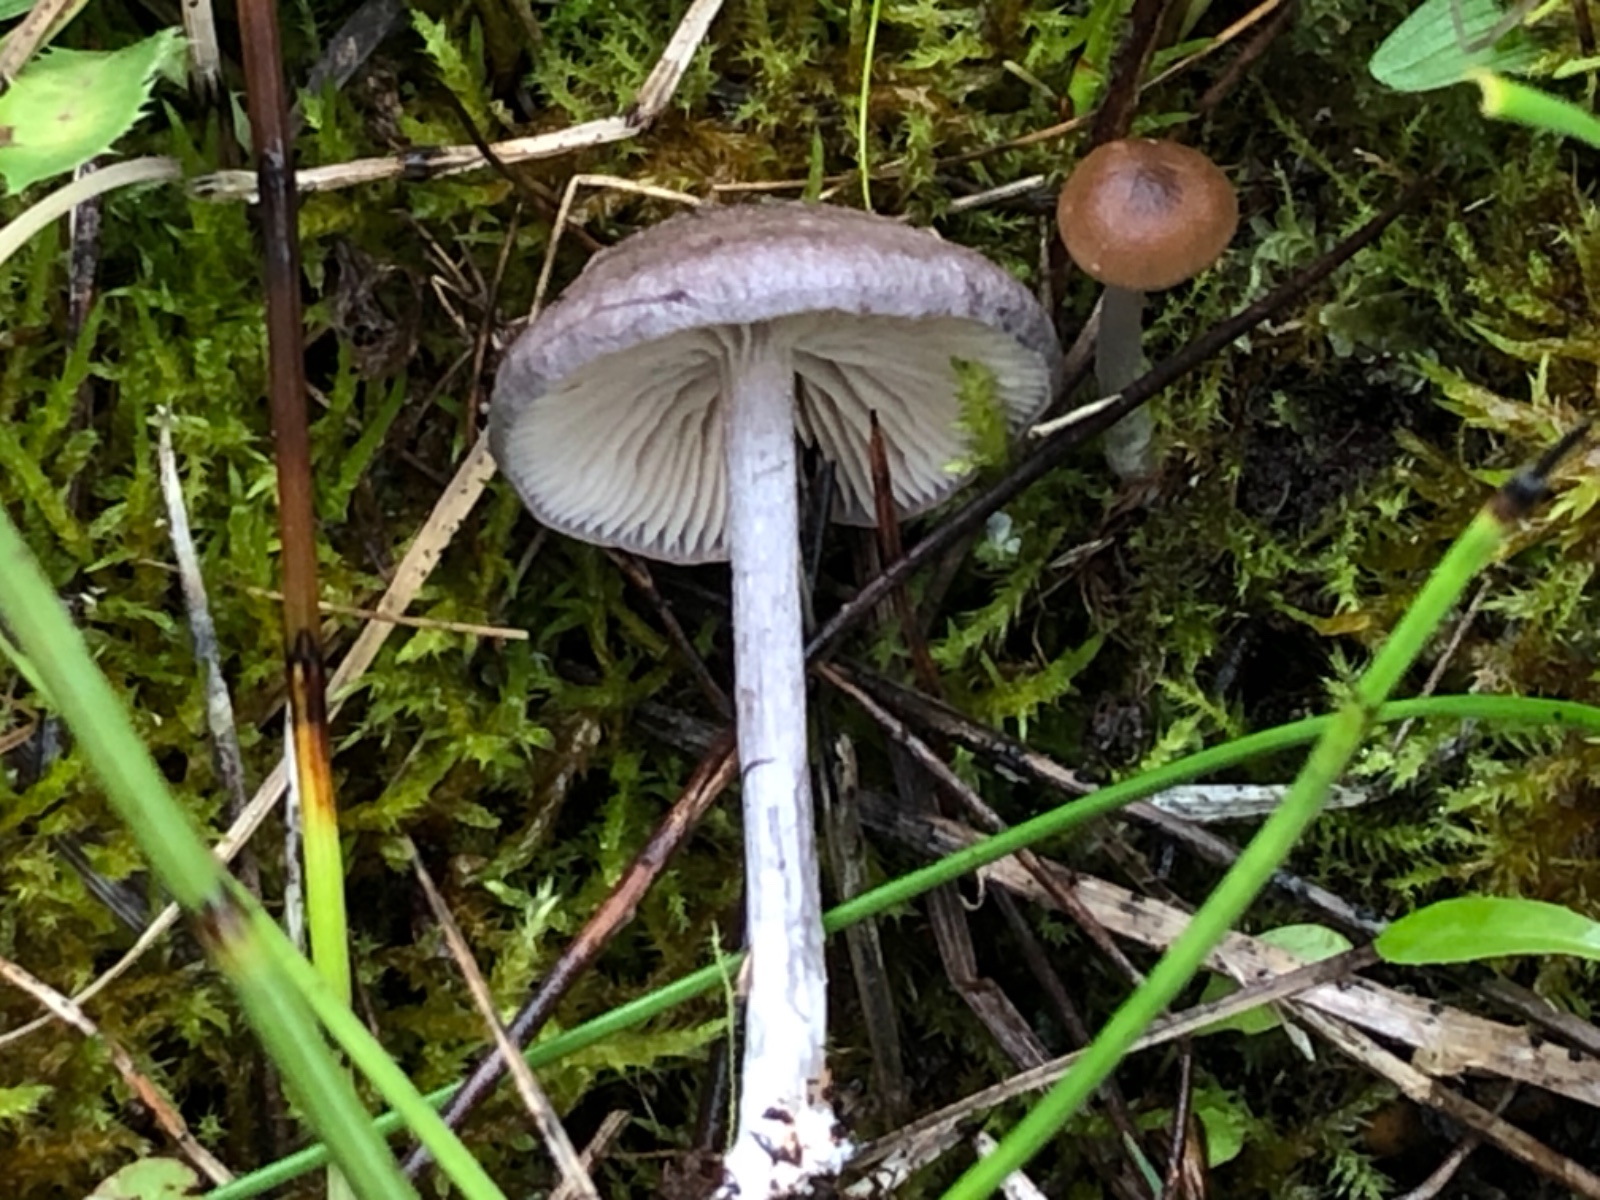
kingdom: Fungi
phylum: Basidiomycota
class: Agaricomycetes
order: Agaricales
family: Entolomataceae
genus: Entoloma
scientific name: Entoloma mougeotii
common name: violetgrå rødblad
